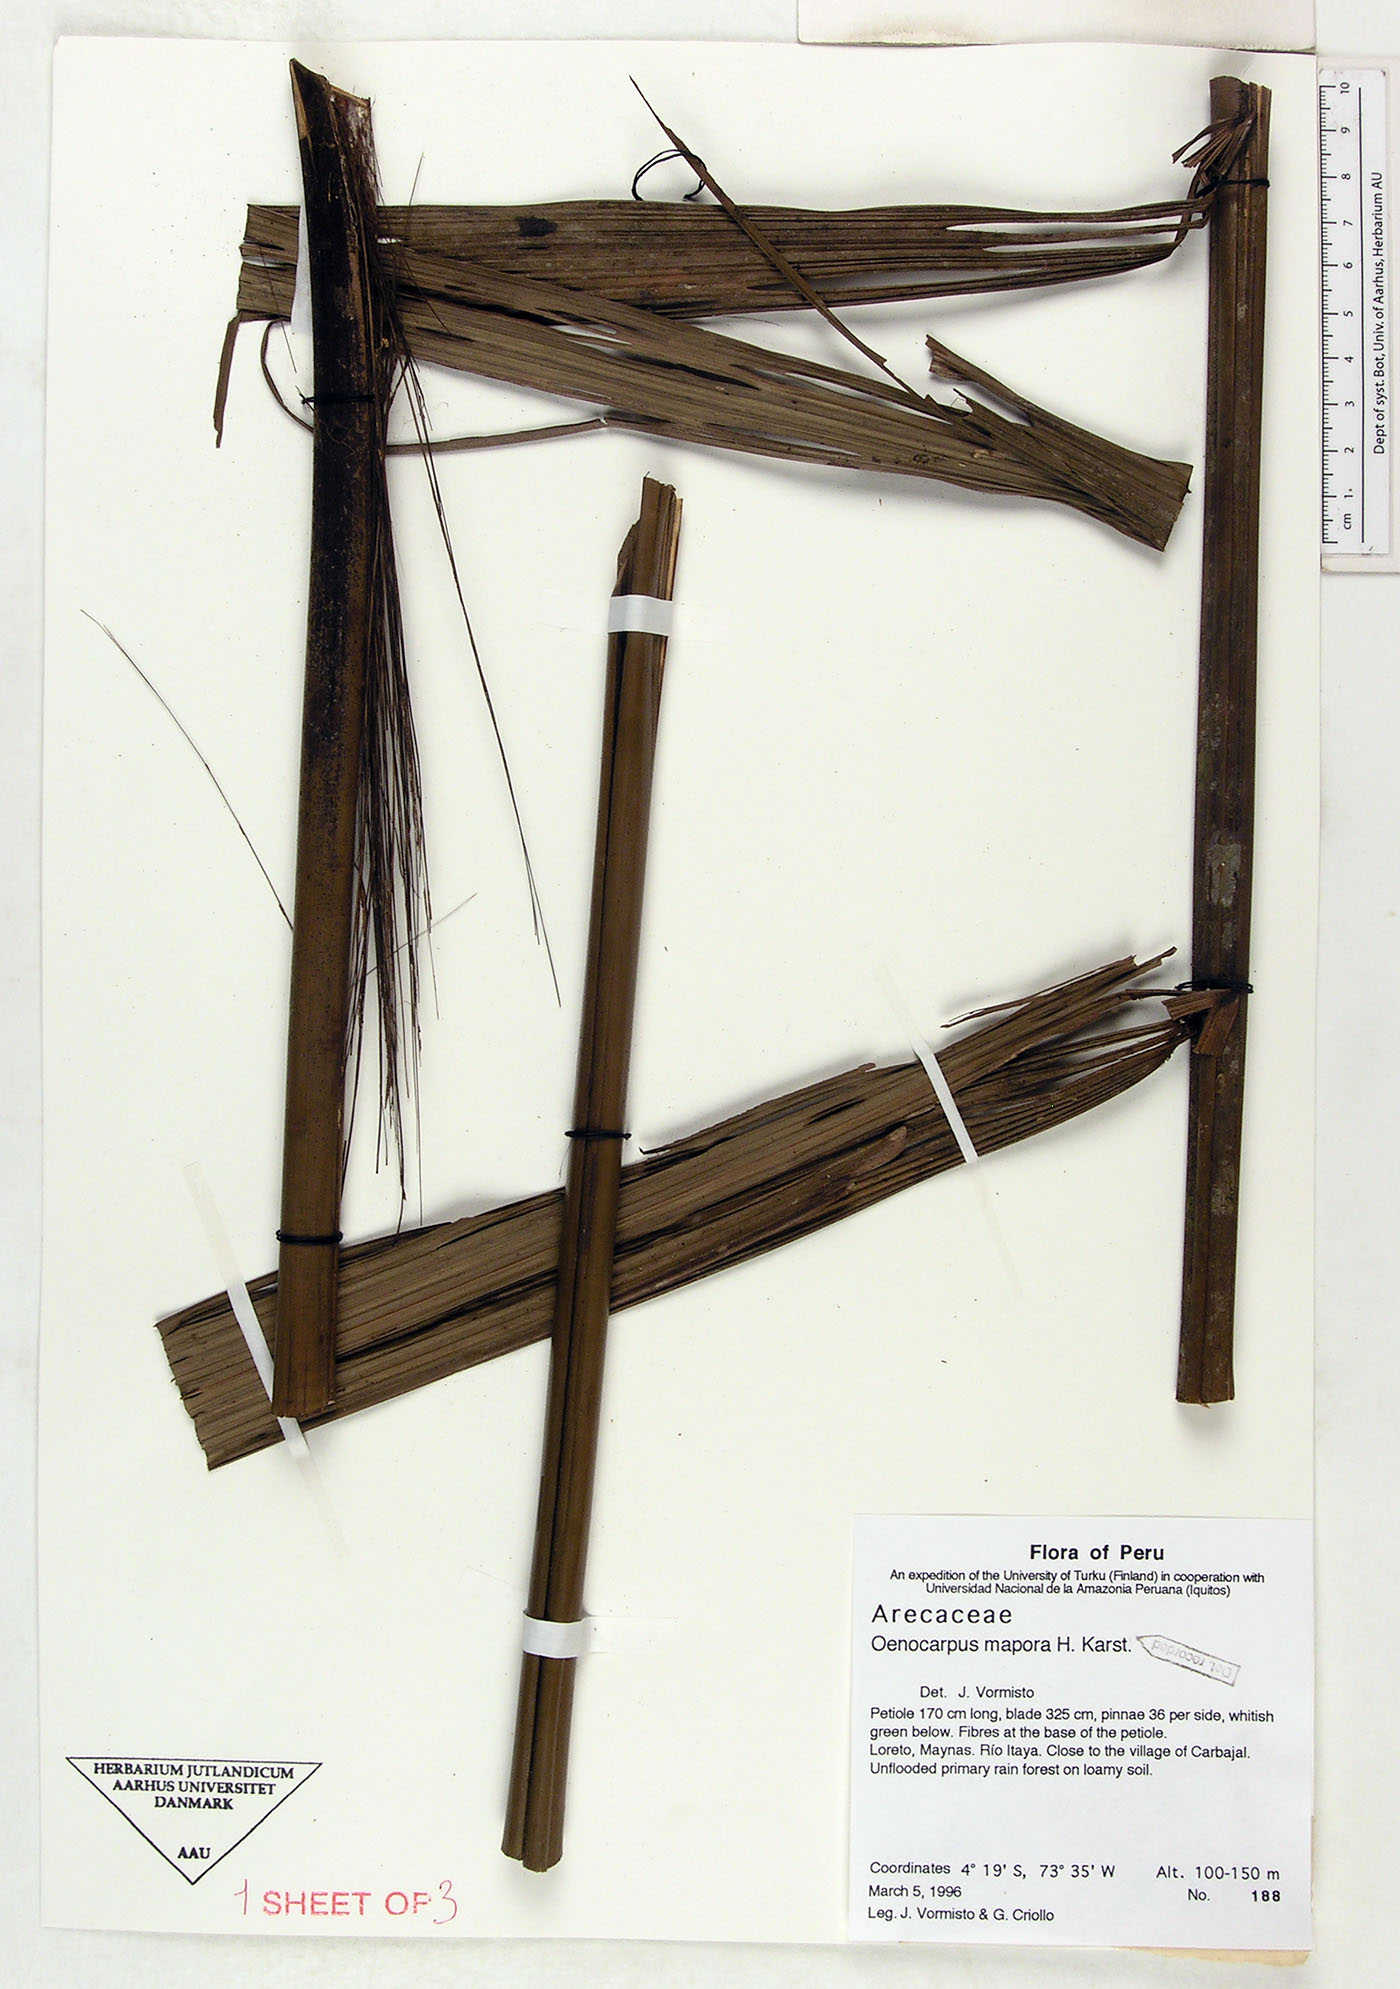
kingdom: Plantae
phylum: Tracheophyta
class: Liliopsida
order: Arecales
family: Arecaceae
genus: Oenocarpus
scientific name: Oenocarpus mapora
